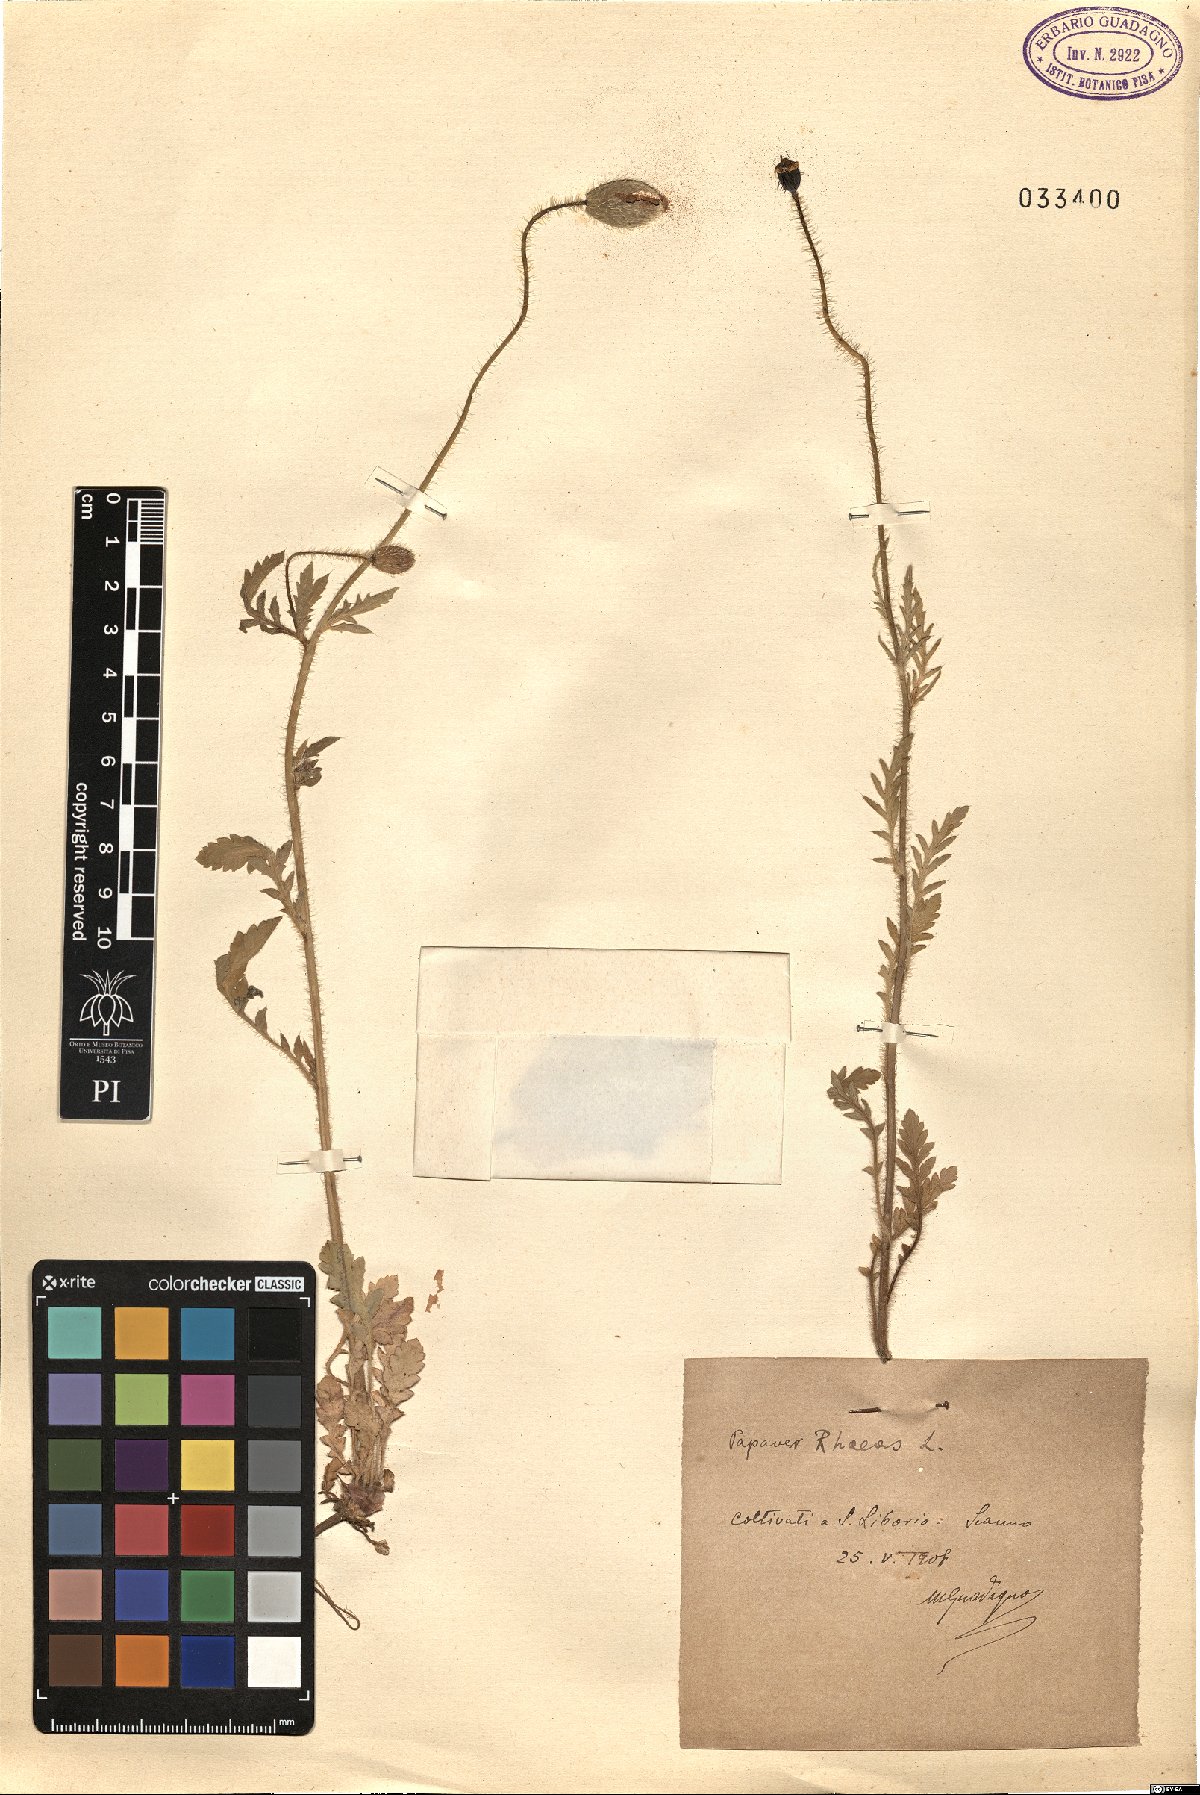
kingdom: Plantae
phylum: Tracheophyta
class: Magnoliopsida
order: Ranunculales
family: Papaveraceae
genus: Papaver
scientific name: Papaver rhoeas
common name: Corn poppy
